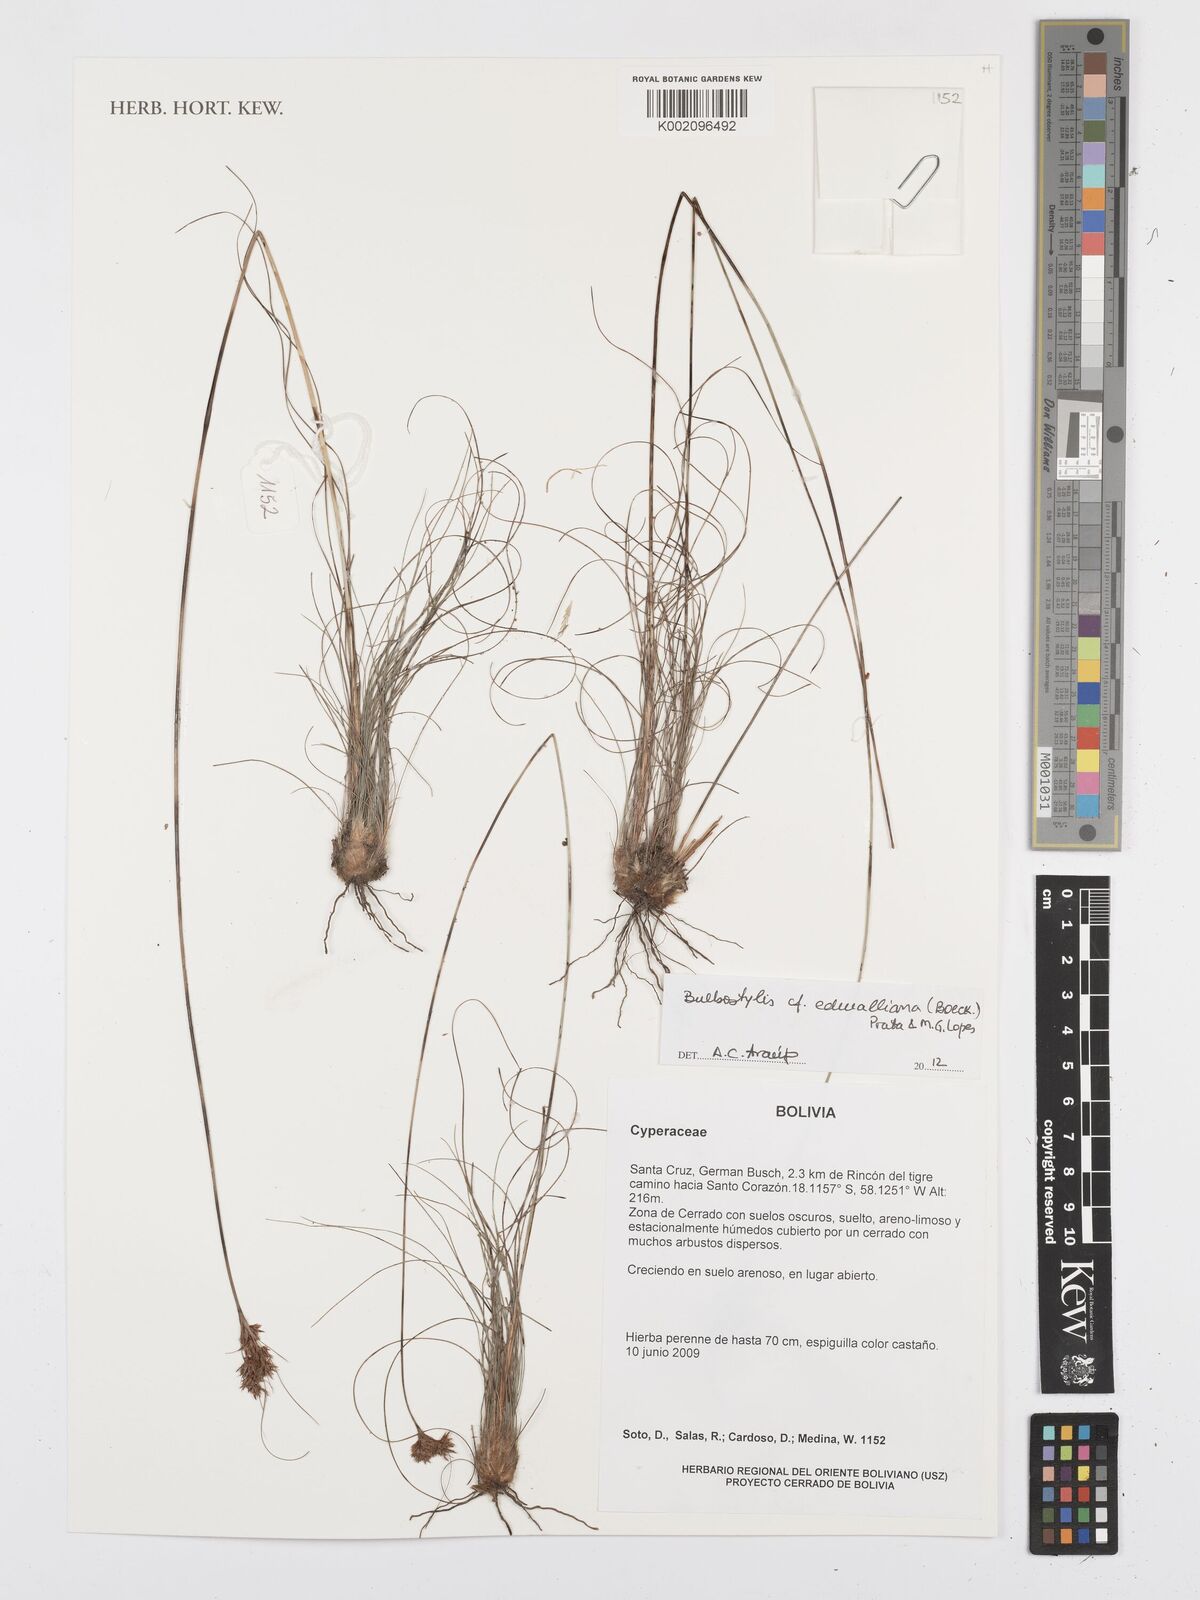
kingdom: Plantae
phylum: Tracheophyta
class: Liliopsida
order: Poales
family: Cyperaceae
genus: Bulbostylis
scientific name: Bulbostylis edwalliana
